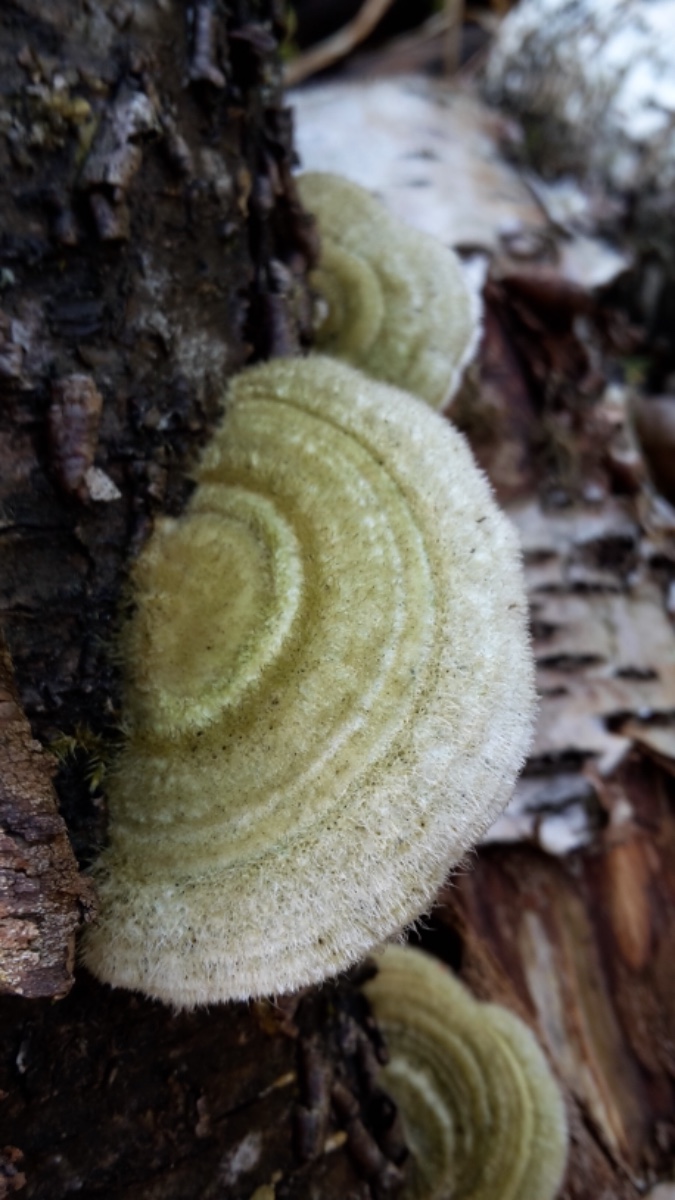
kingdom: Fungi
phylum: Basidiomycota
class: Agaricomycetes
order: Polyporales
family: Polyporaceae
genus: Trametes
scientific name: Trametes hirsuta
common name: håret læderporesvamp
